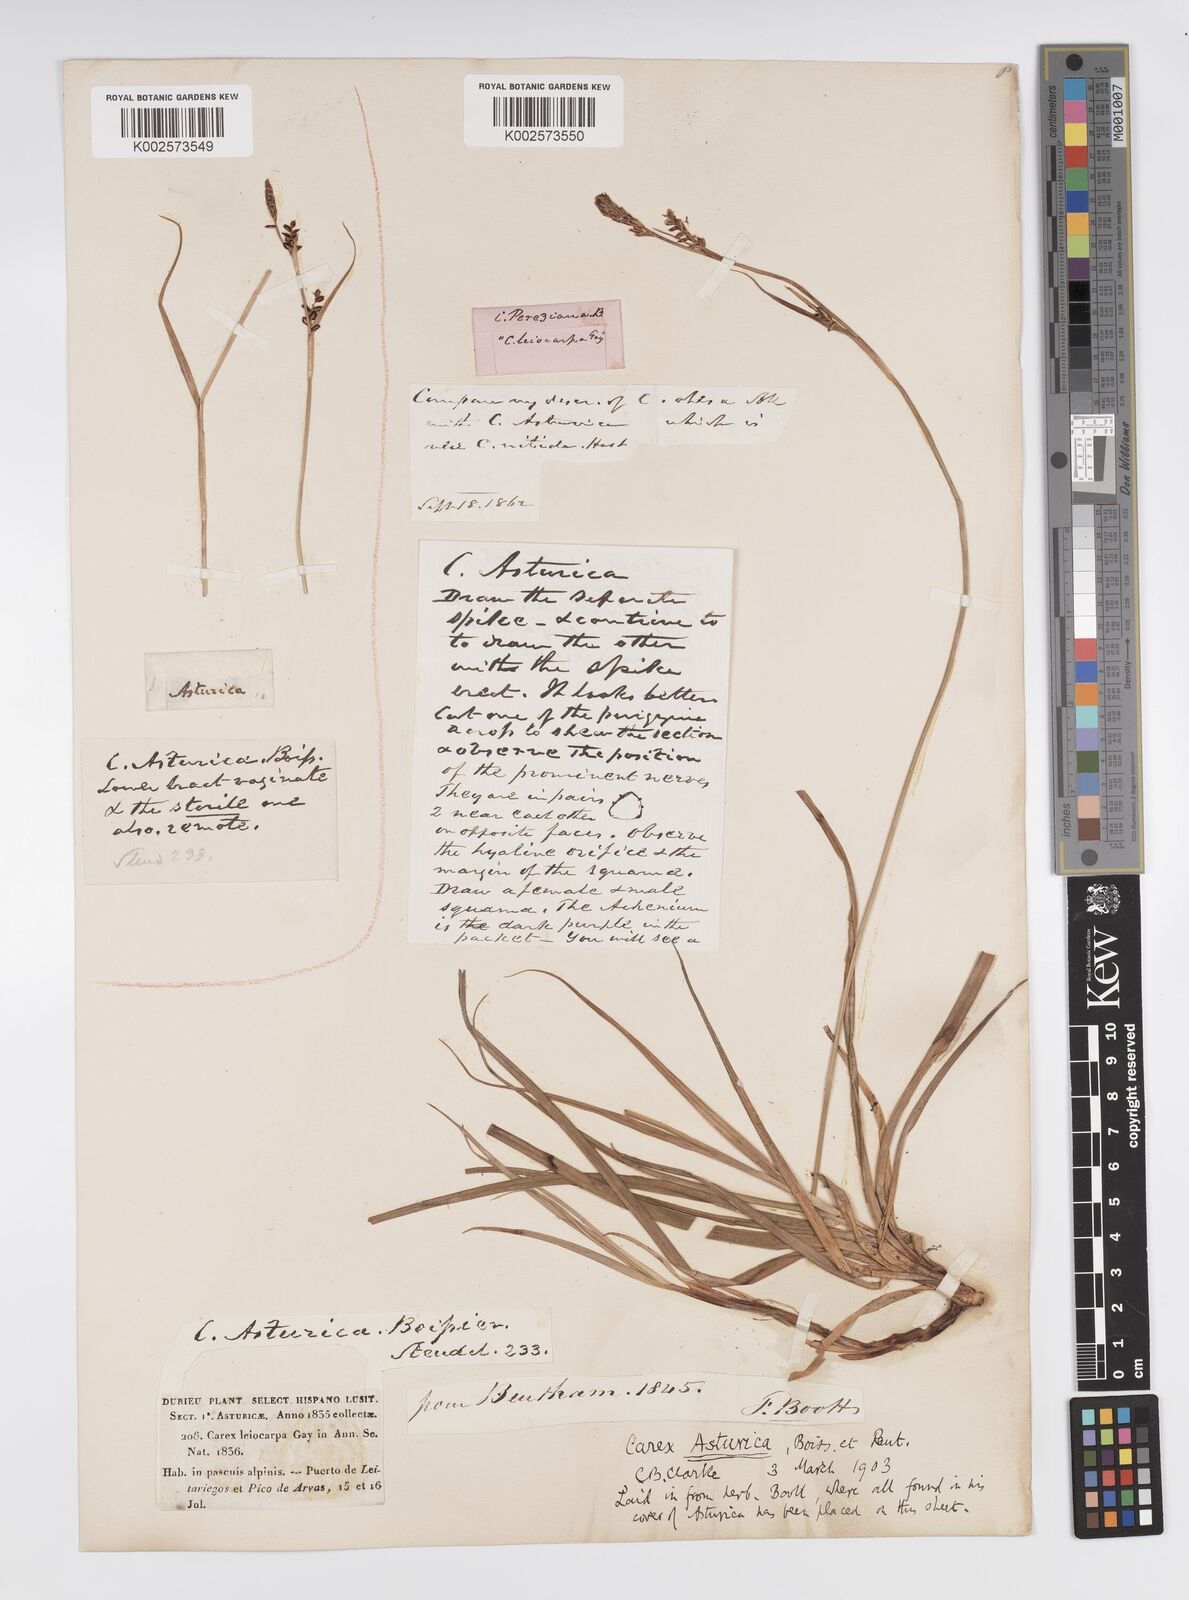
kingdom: Plantae
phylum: Tracheophyta
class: Liliopsida
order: Poales
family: Cyperaceae
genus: Carex
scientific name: Carex asturica
